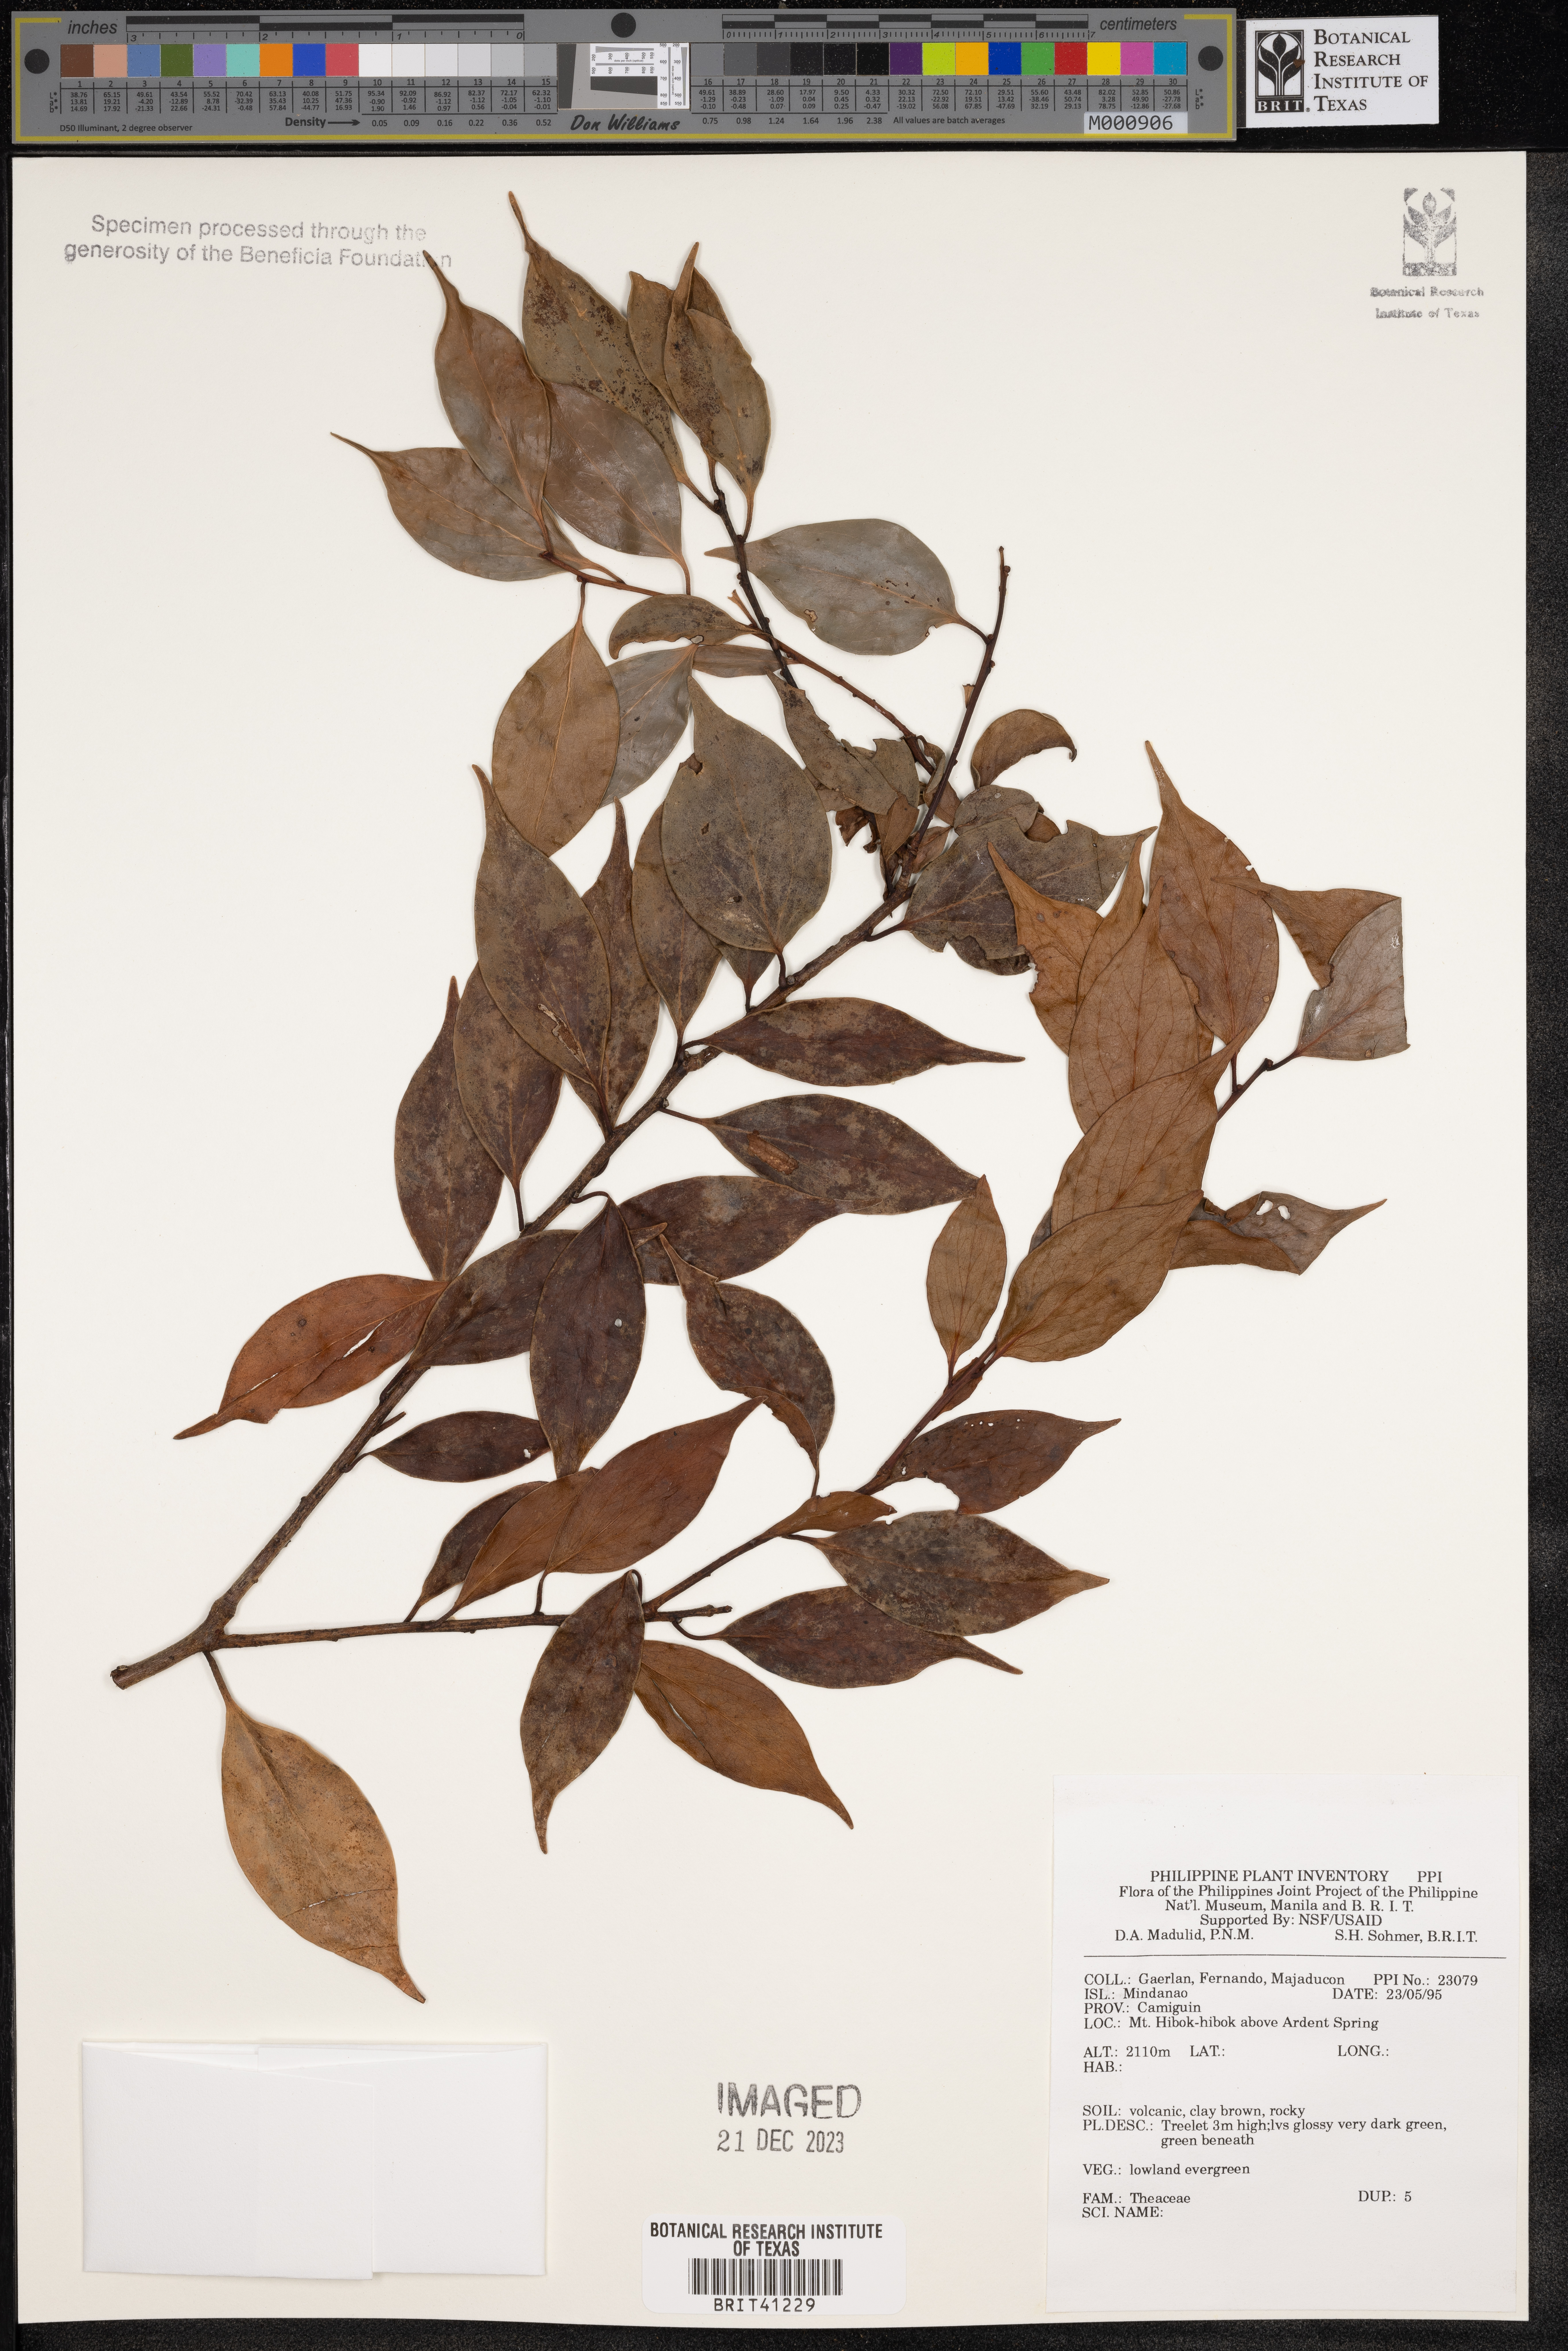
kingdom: Plantae
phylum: Tracheophyta
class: Magnoliopsida
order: Ericales
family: Theaceae
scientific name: Theaceae
